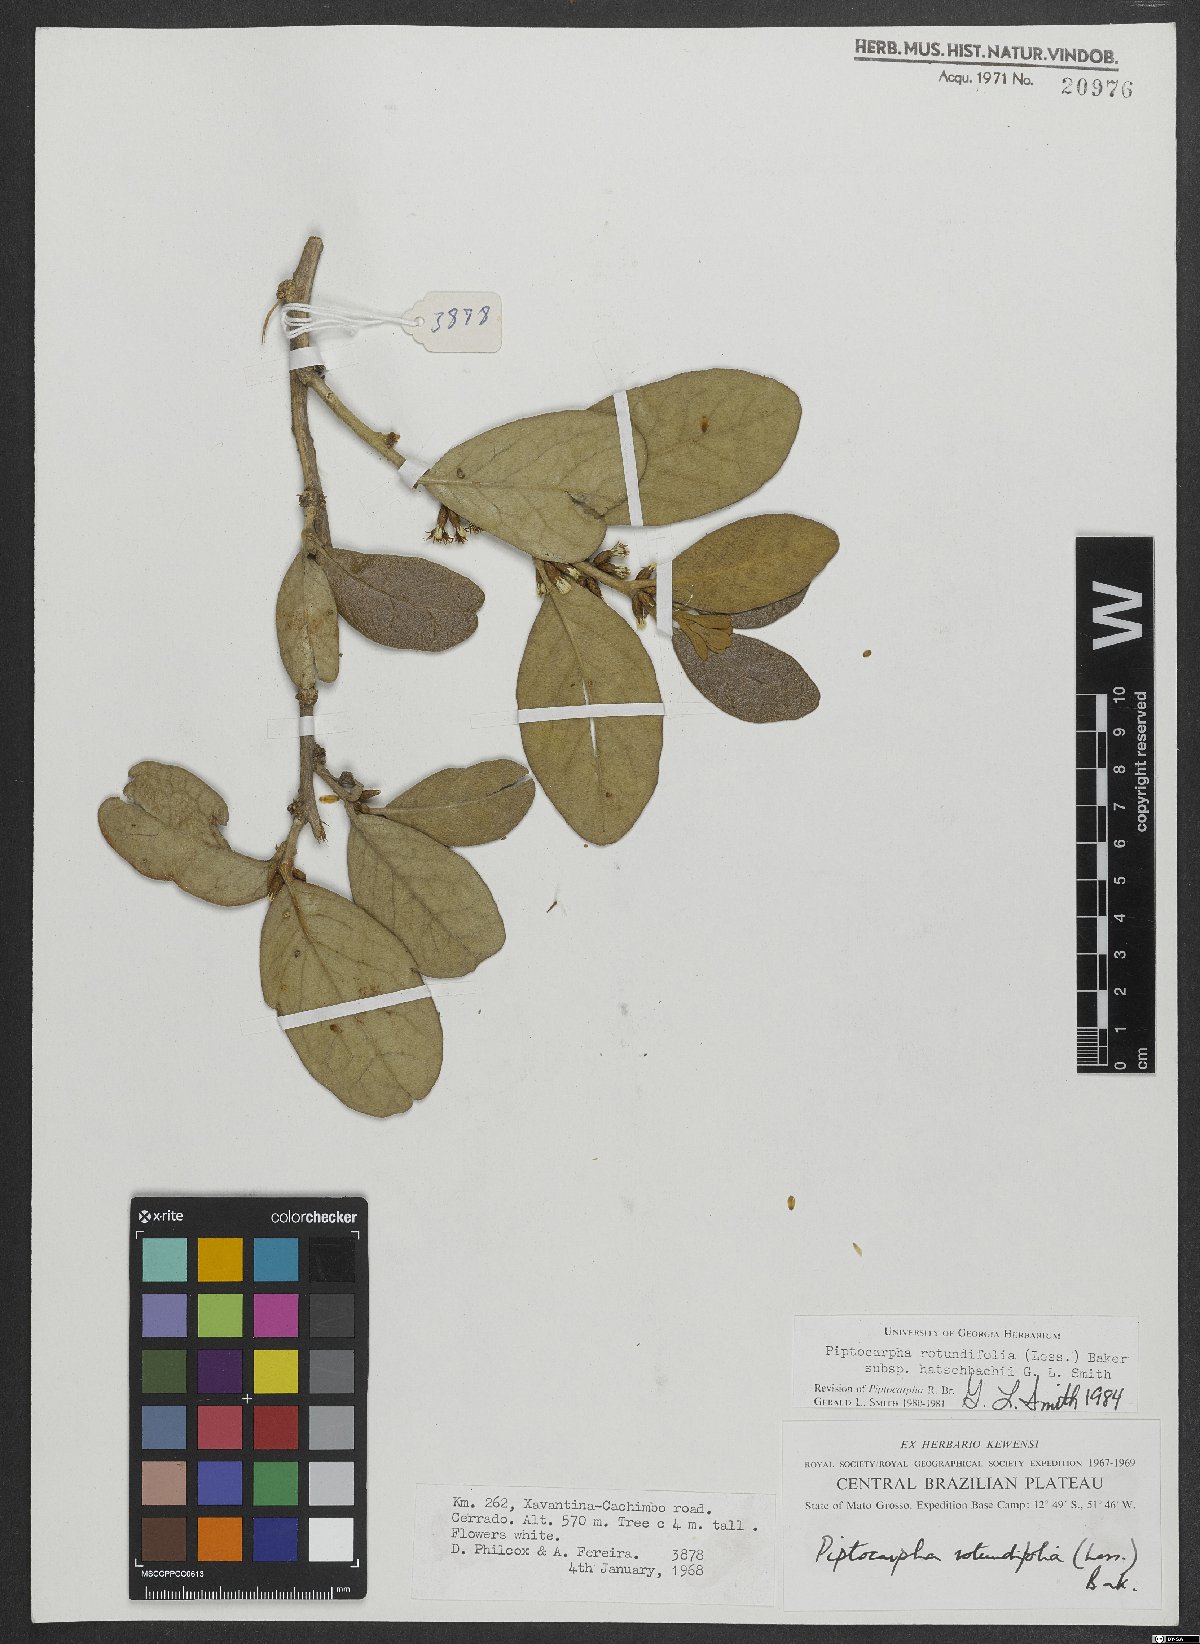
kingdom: Plantae
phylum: Tracheophyta
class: Magnoliopsida
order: Asterales
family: Asteraceae
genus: Piptocarpha
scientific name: Piptocarpha rotundifolia
